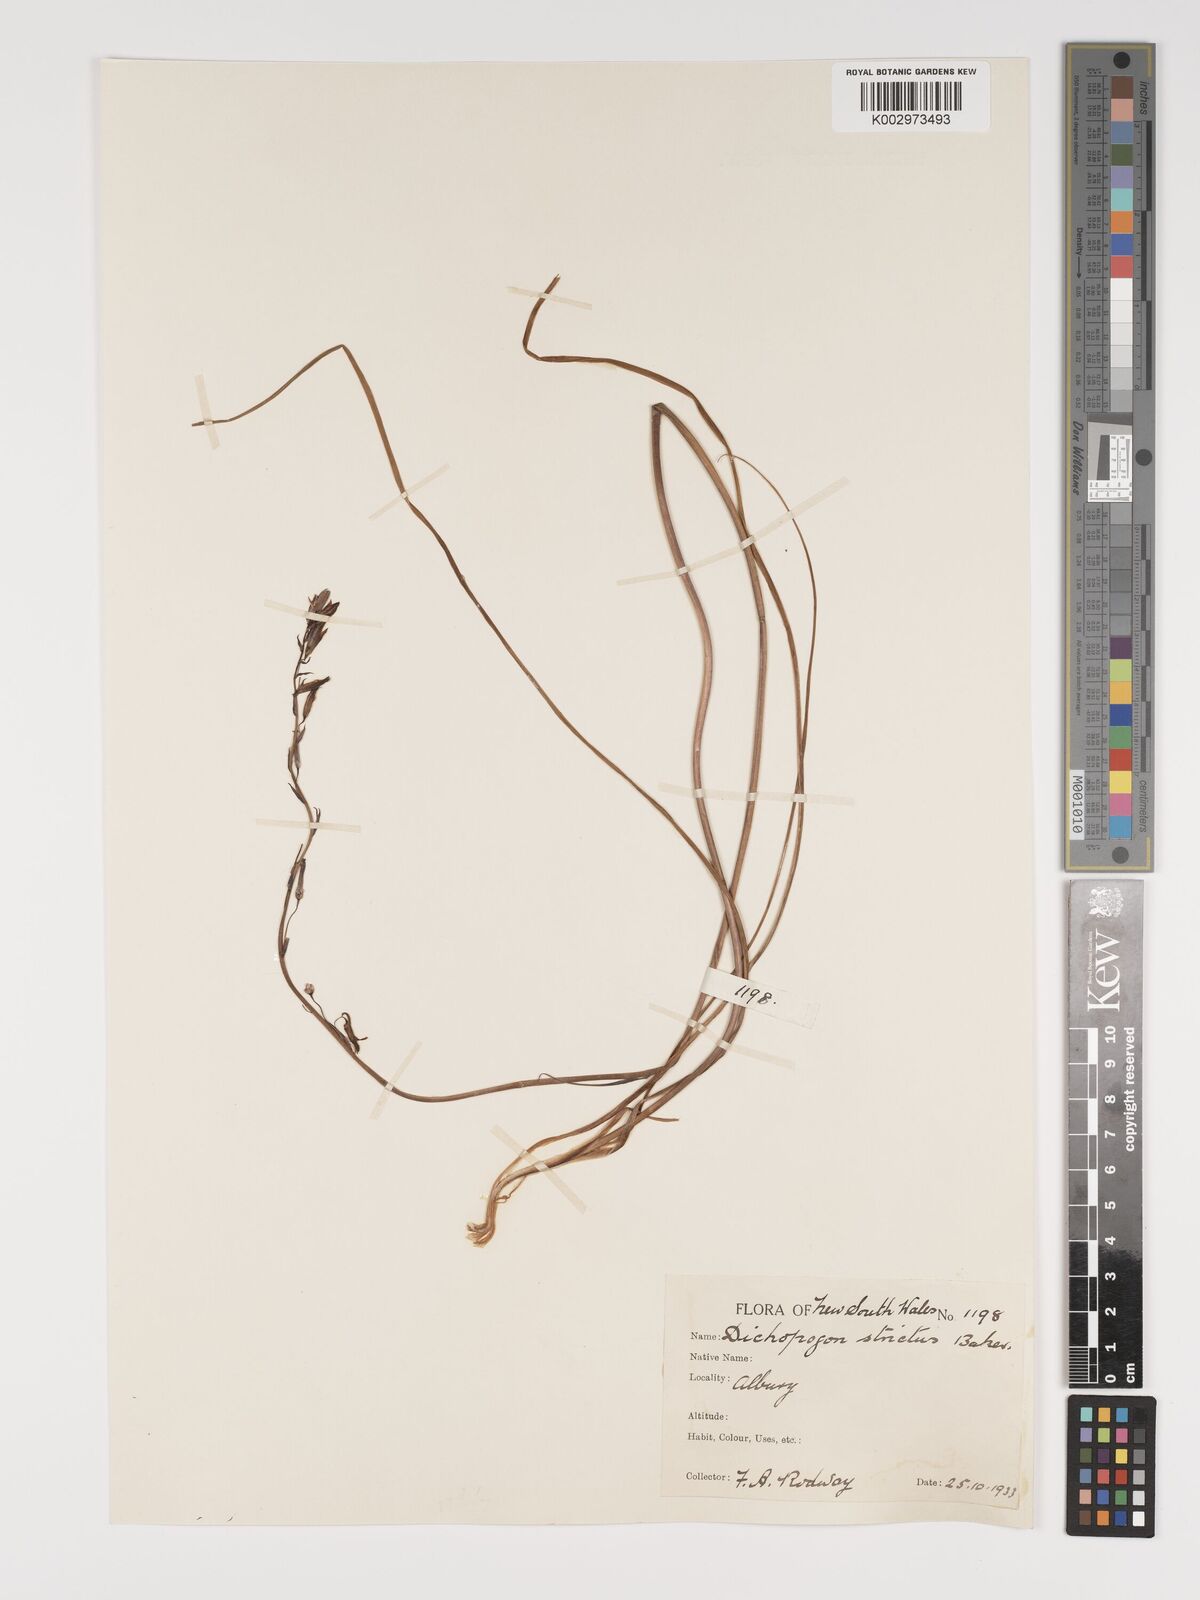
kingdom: Plantae
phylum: Tracheophyta
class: Liliopsida
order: Asparagales
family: Asparagaceae
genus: Arthropodium
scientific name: Arthropodium strictum
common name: Chocolate-lily
